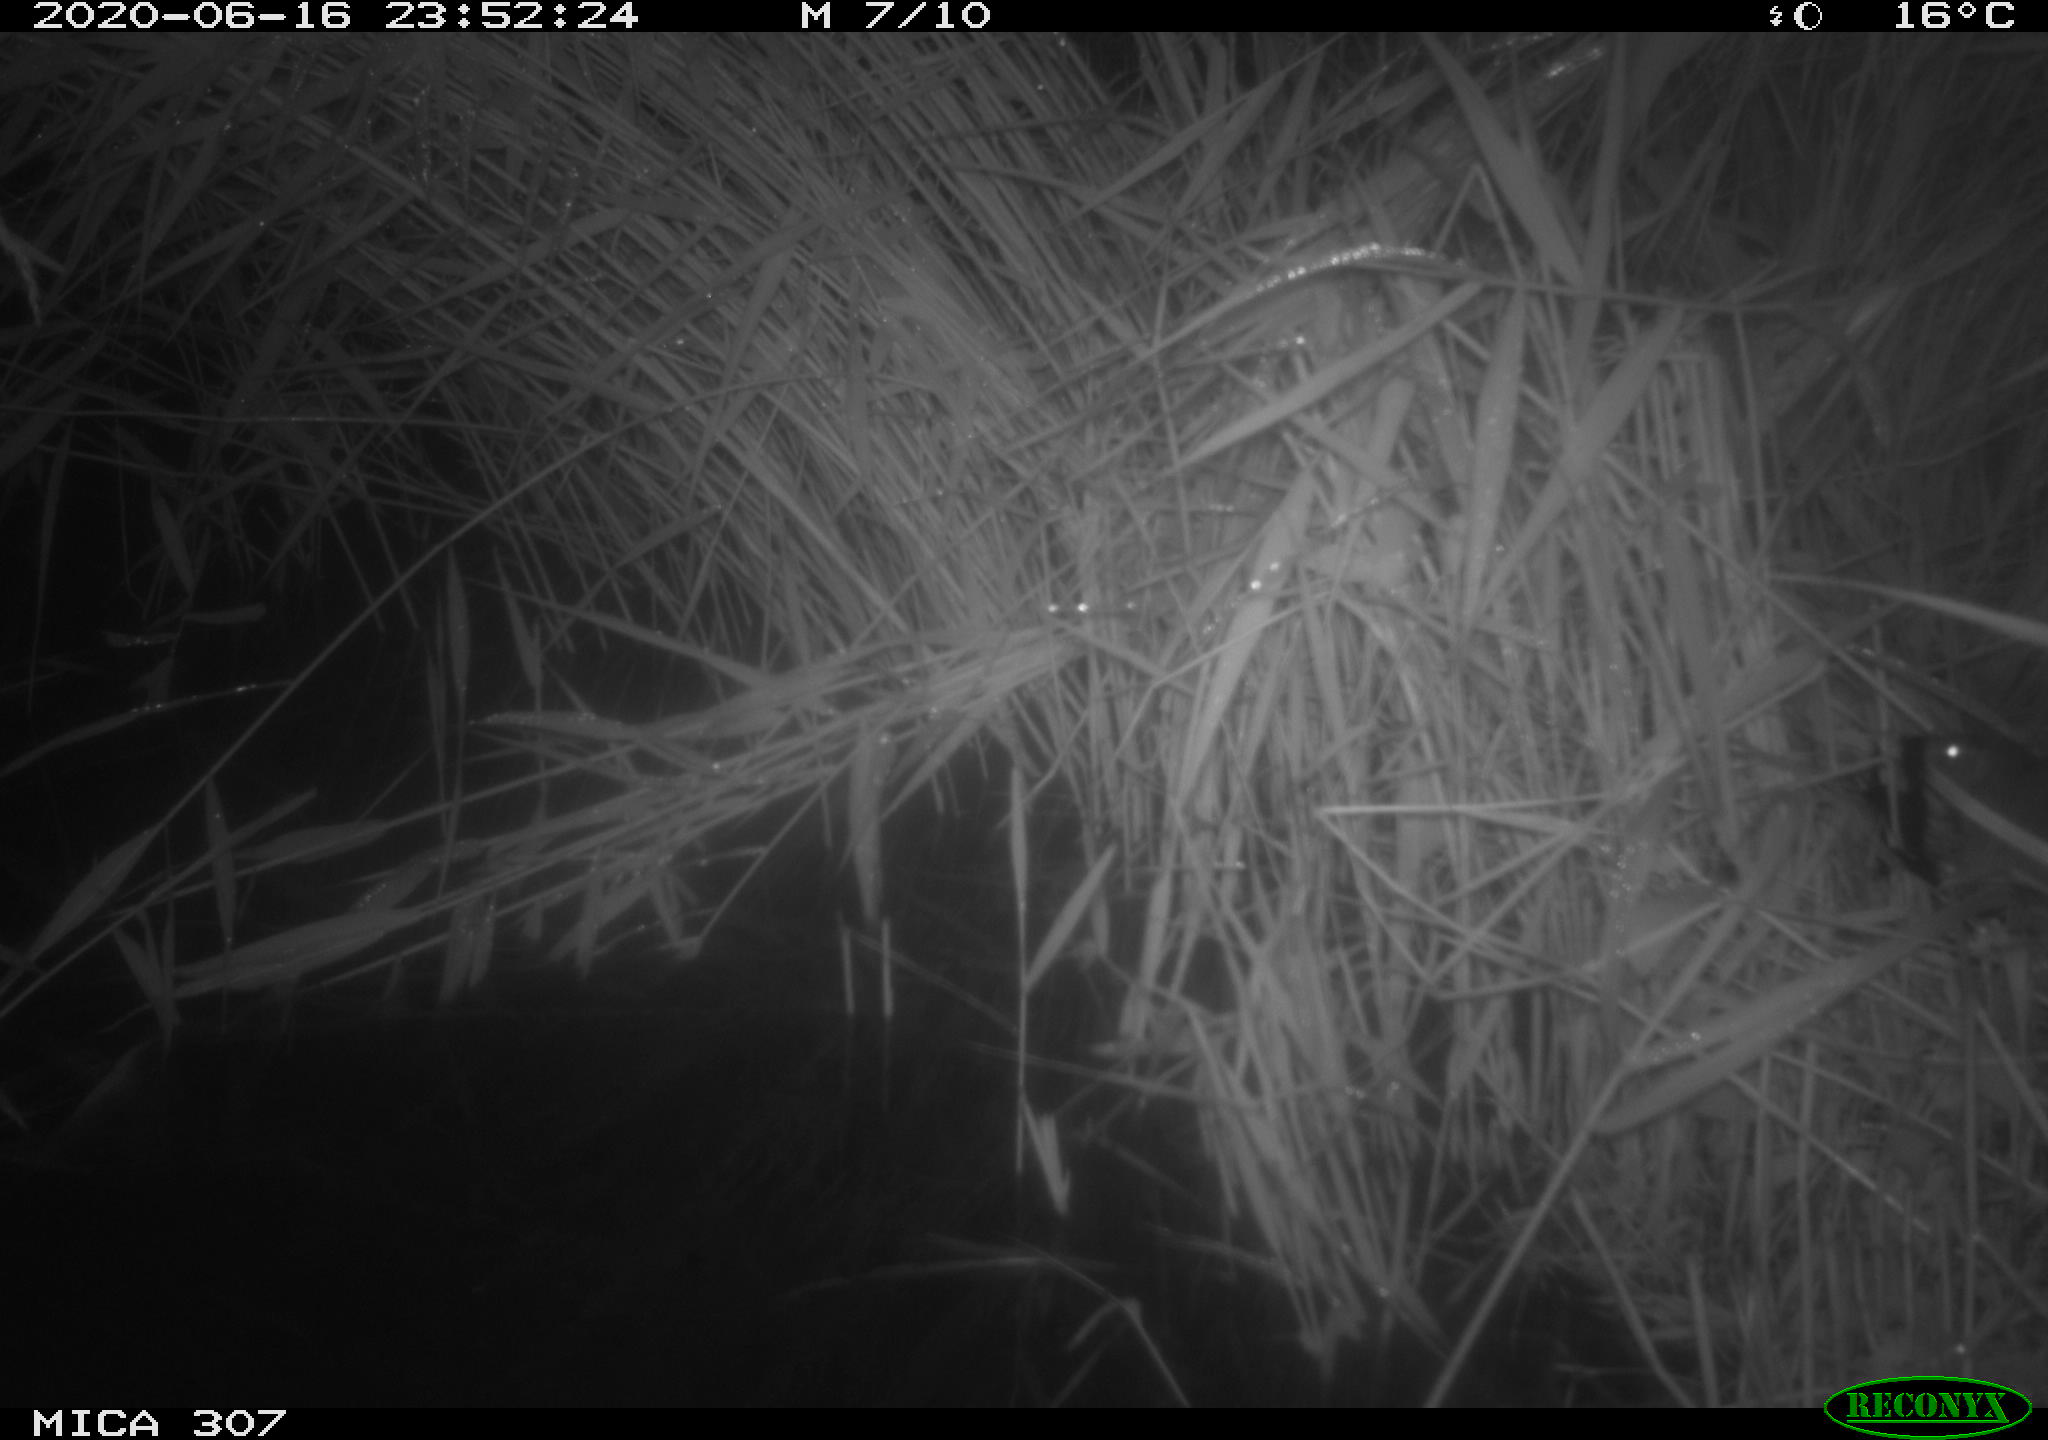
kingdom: Animalia
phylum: Chordata
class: Mammalia
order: Rodentia
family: Muridae
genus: Rattus
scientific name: Rattus norvegicus
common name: Brown rat
